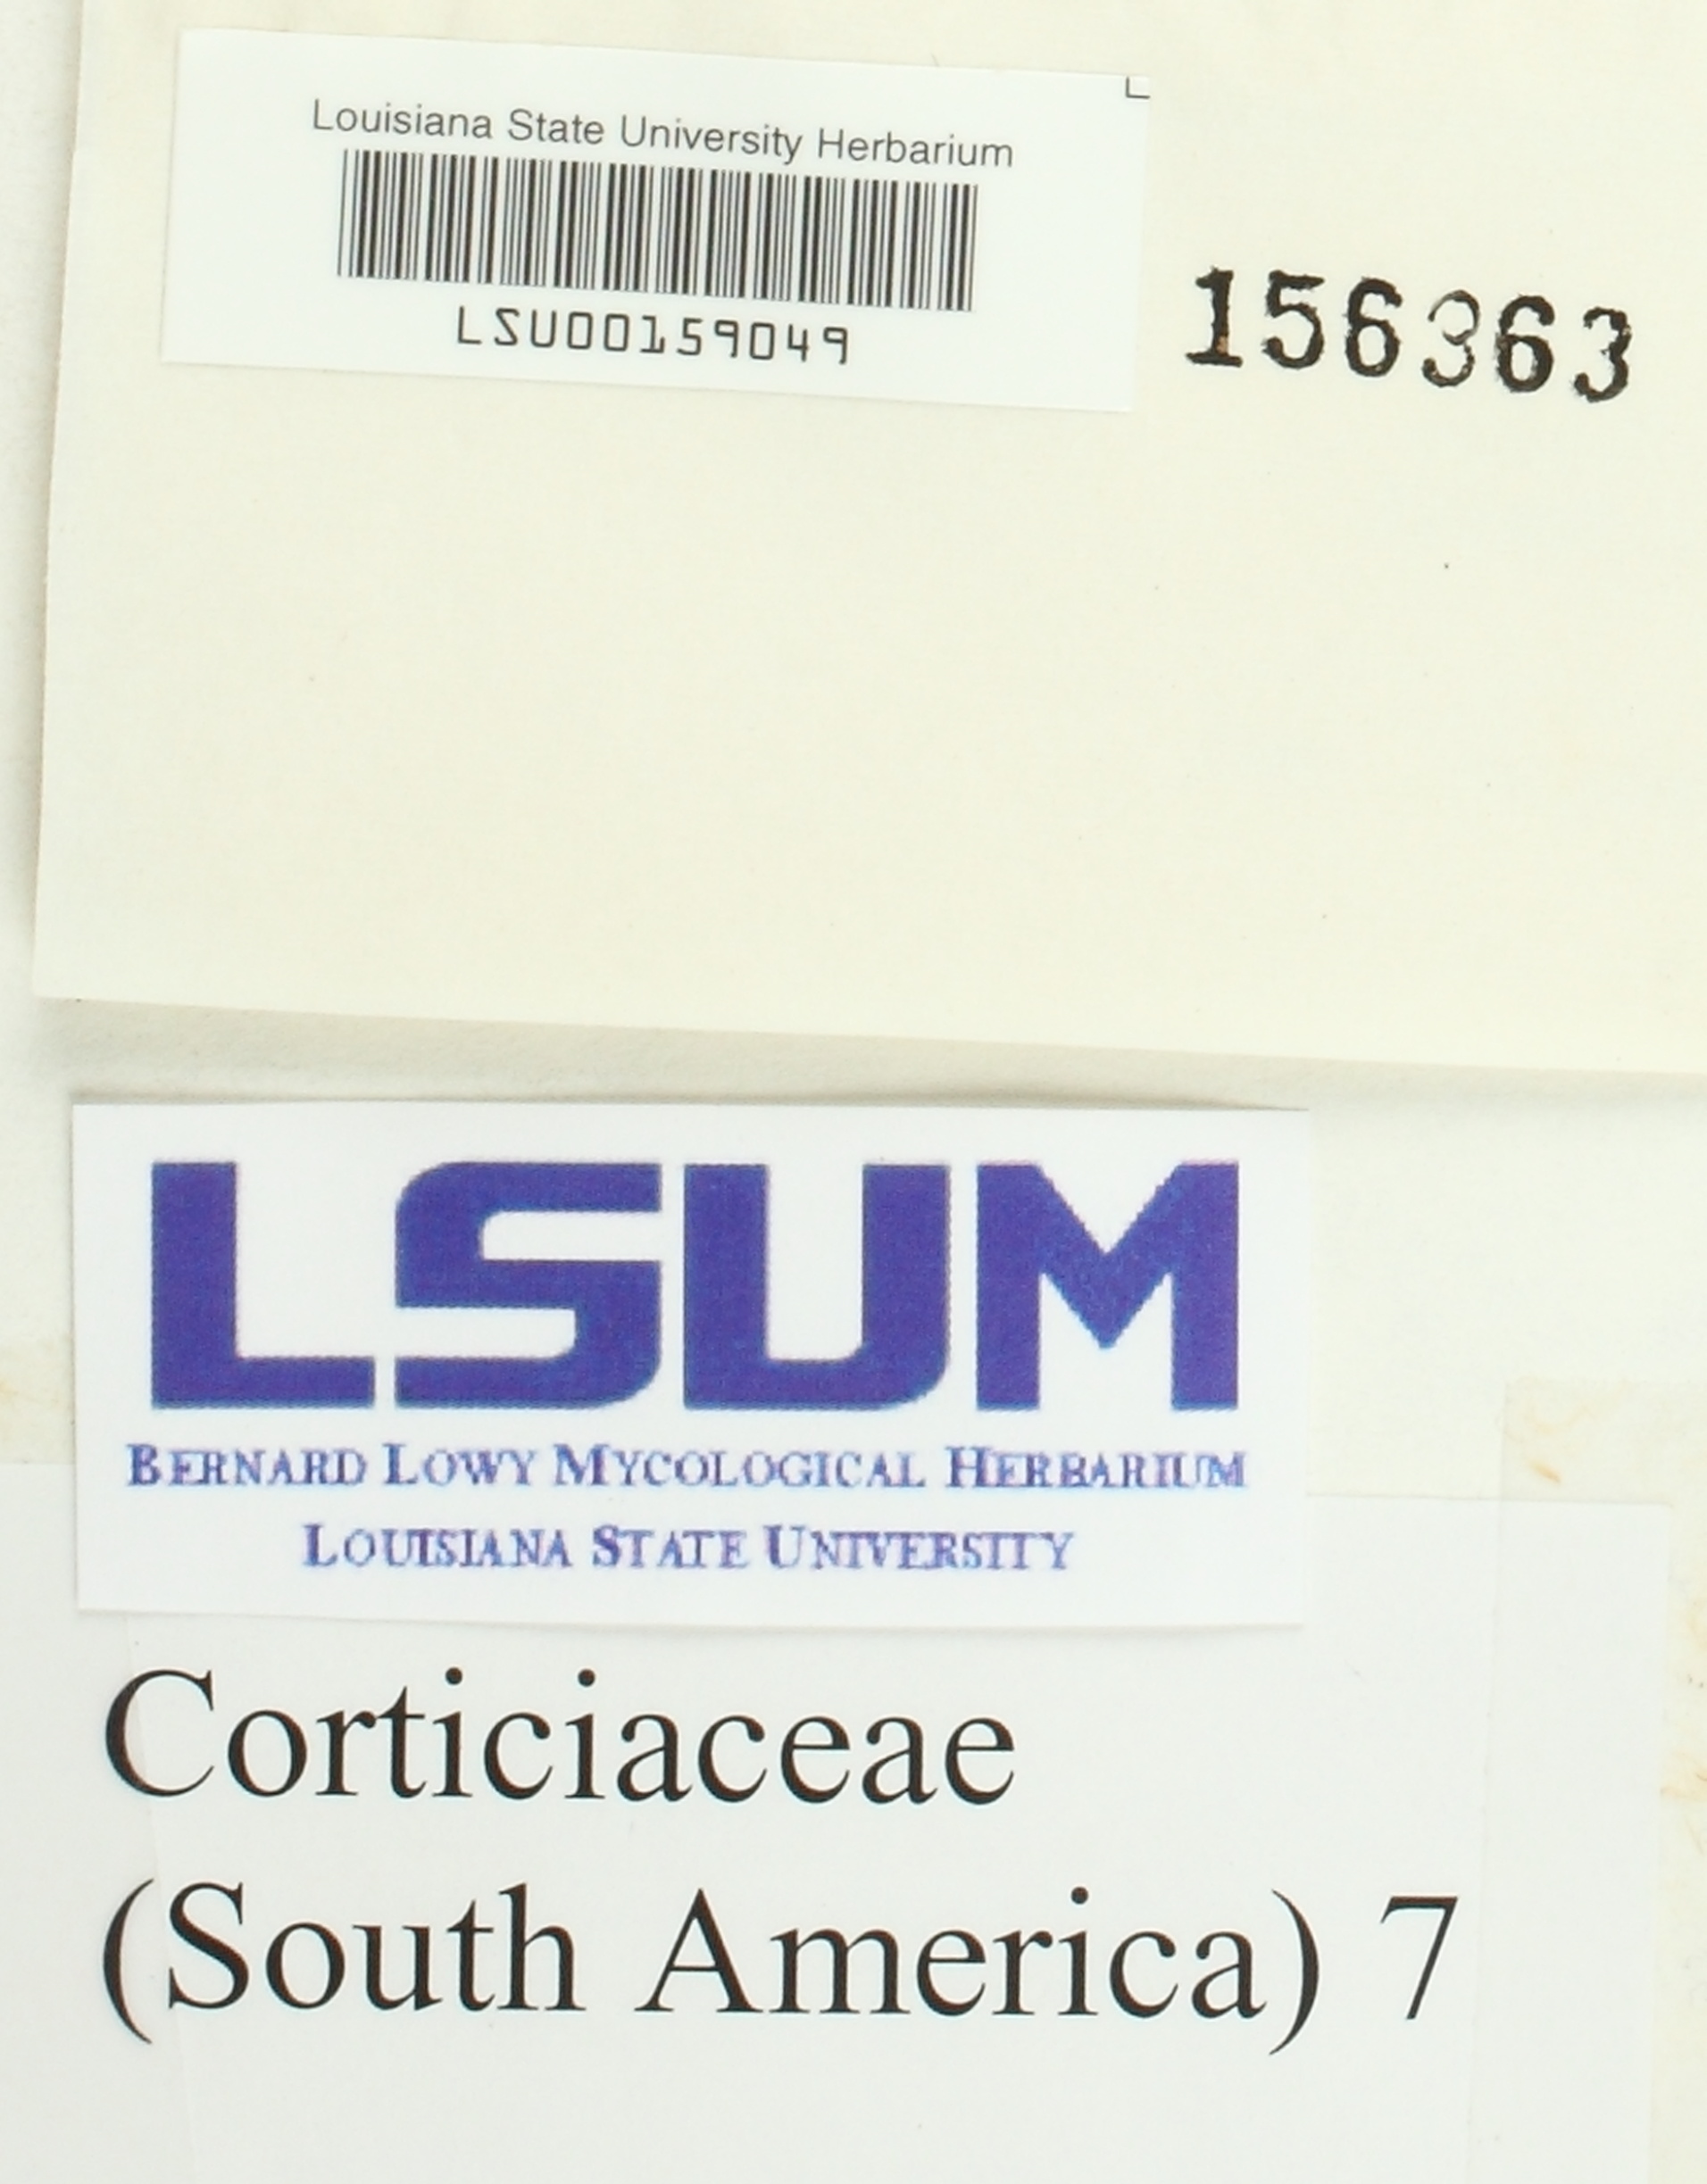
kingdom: Fungi
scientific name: Fungi
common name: Fungi
